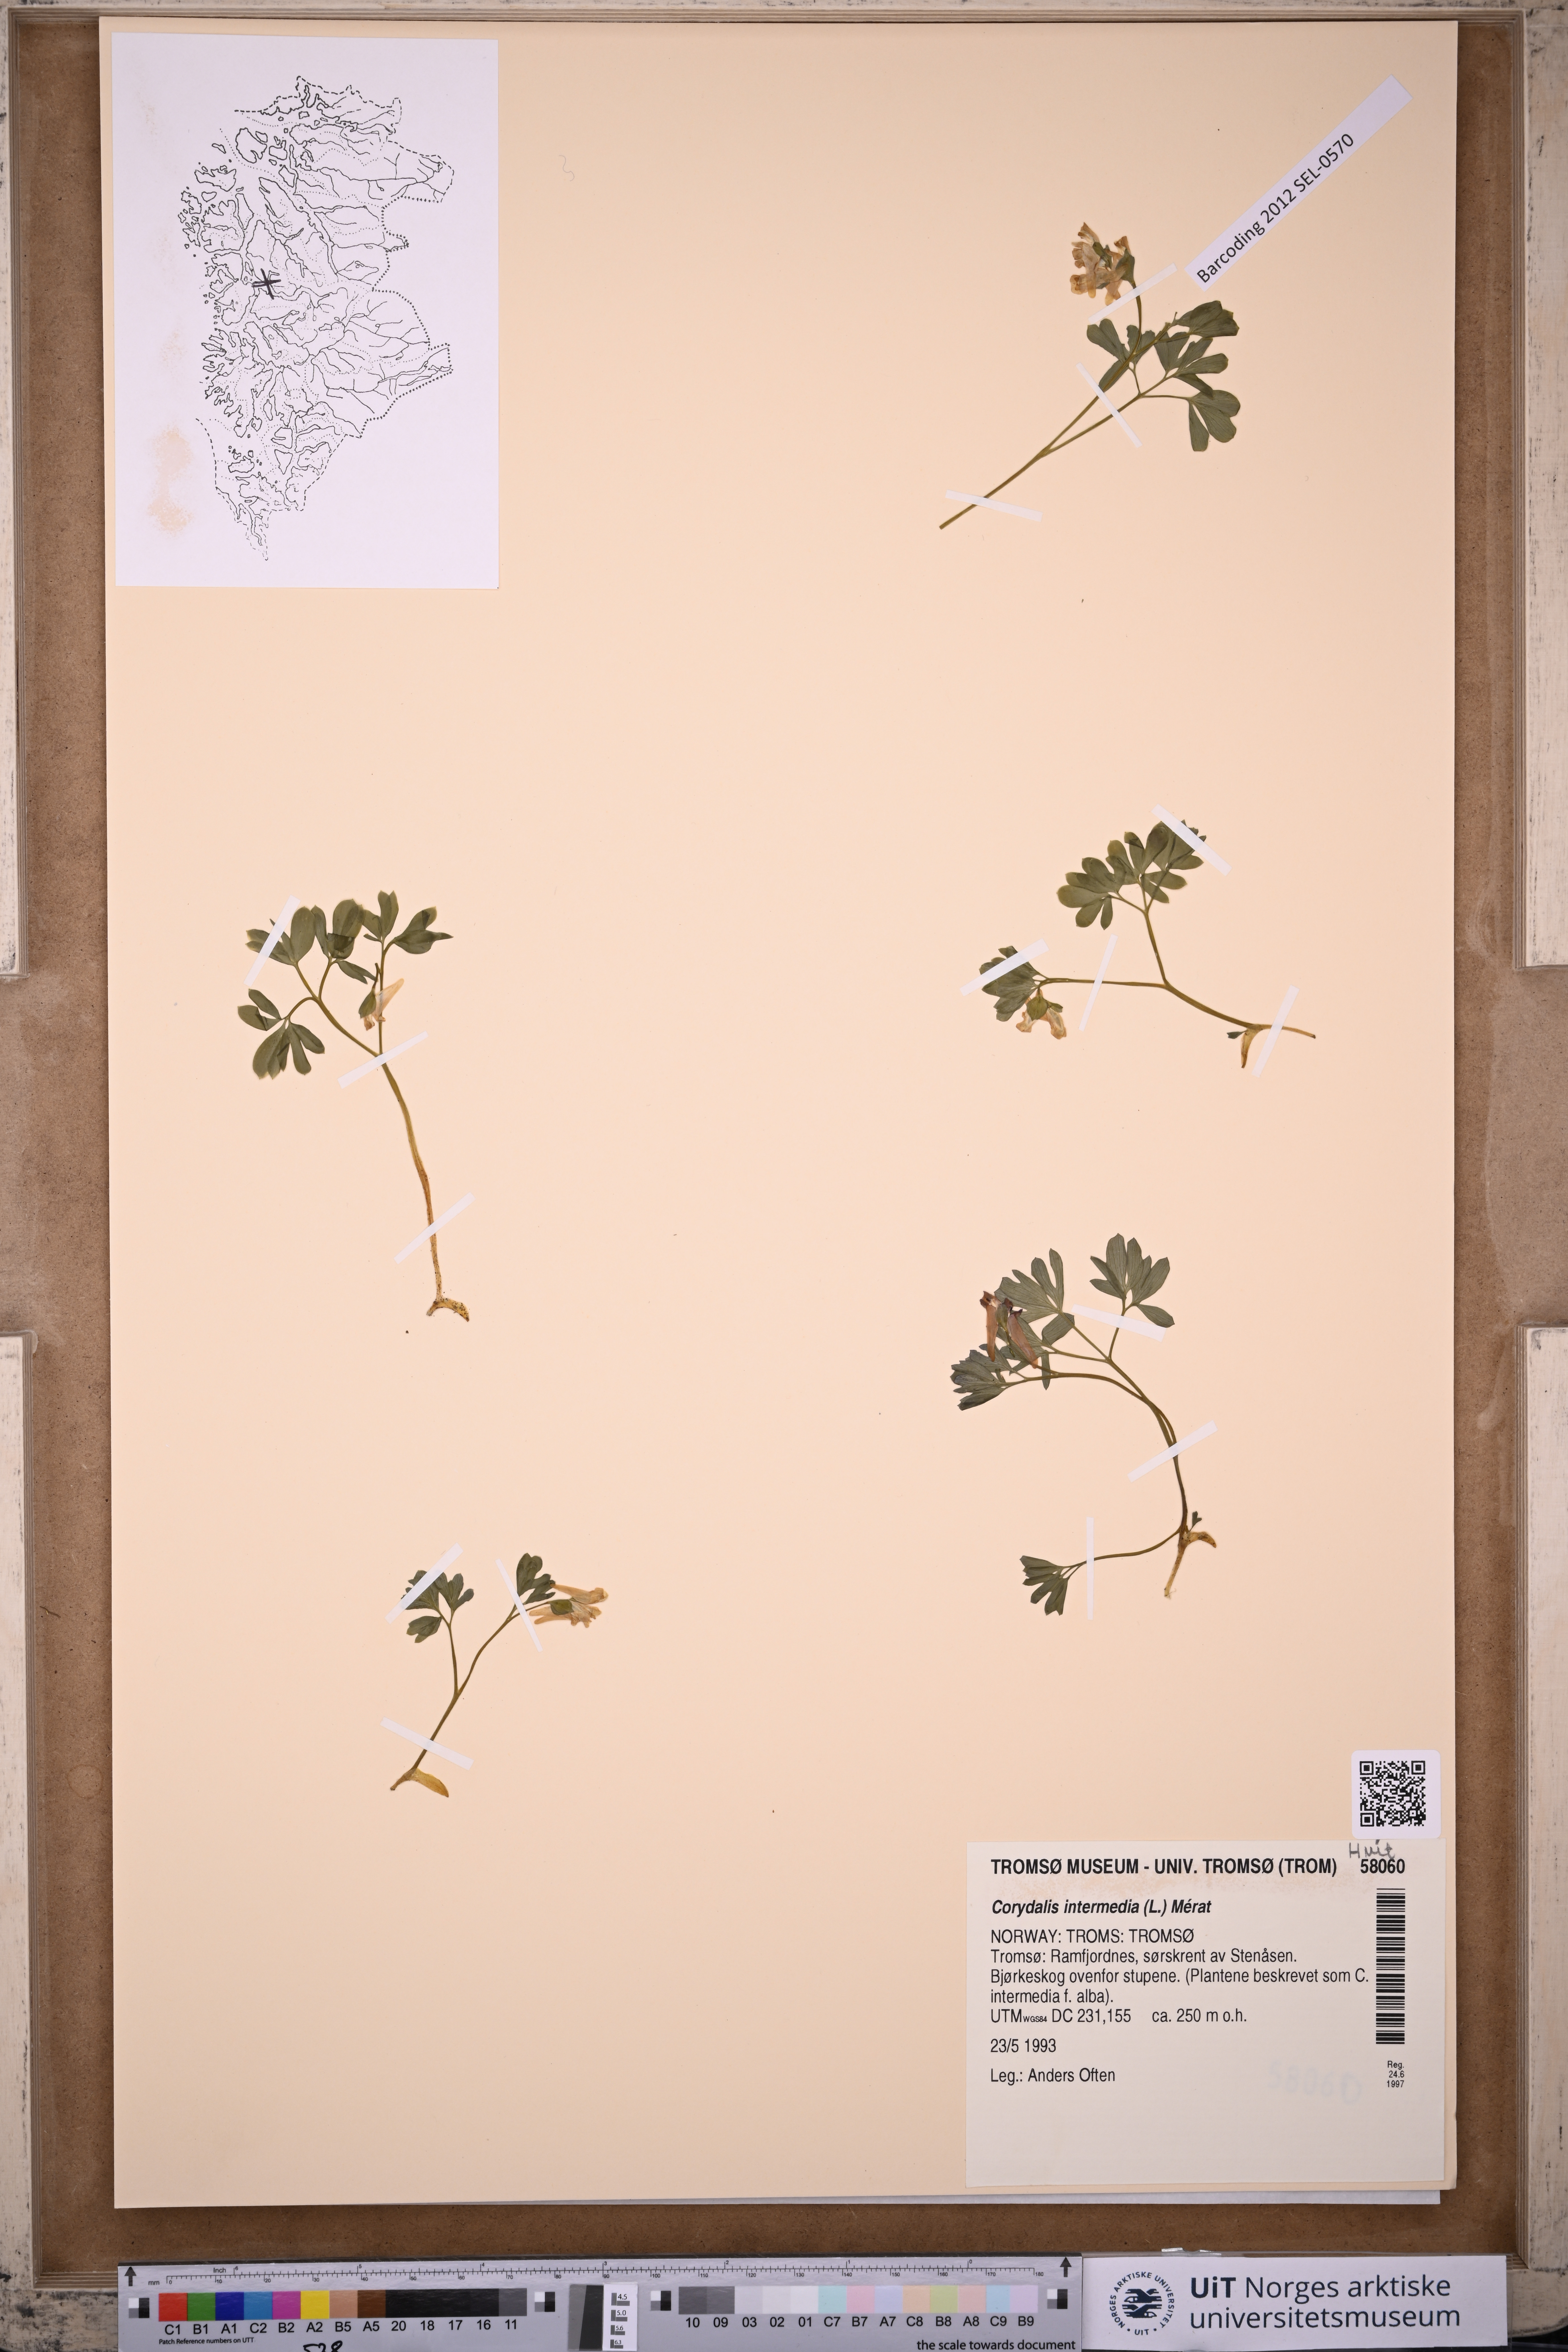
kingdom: Plantae
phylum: Tracheophyta
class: Magnoliopsida
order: Ranunculales
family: Papaveraceae
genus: Corydalis
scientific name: Corydalis intermedia
